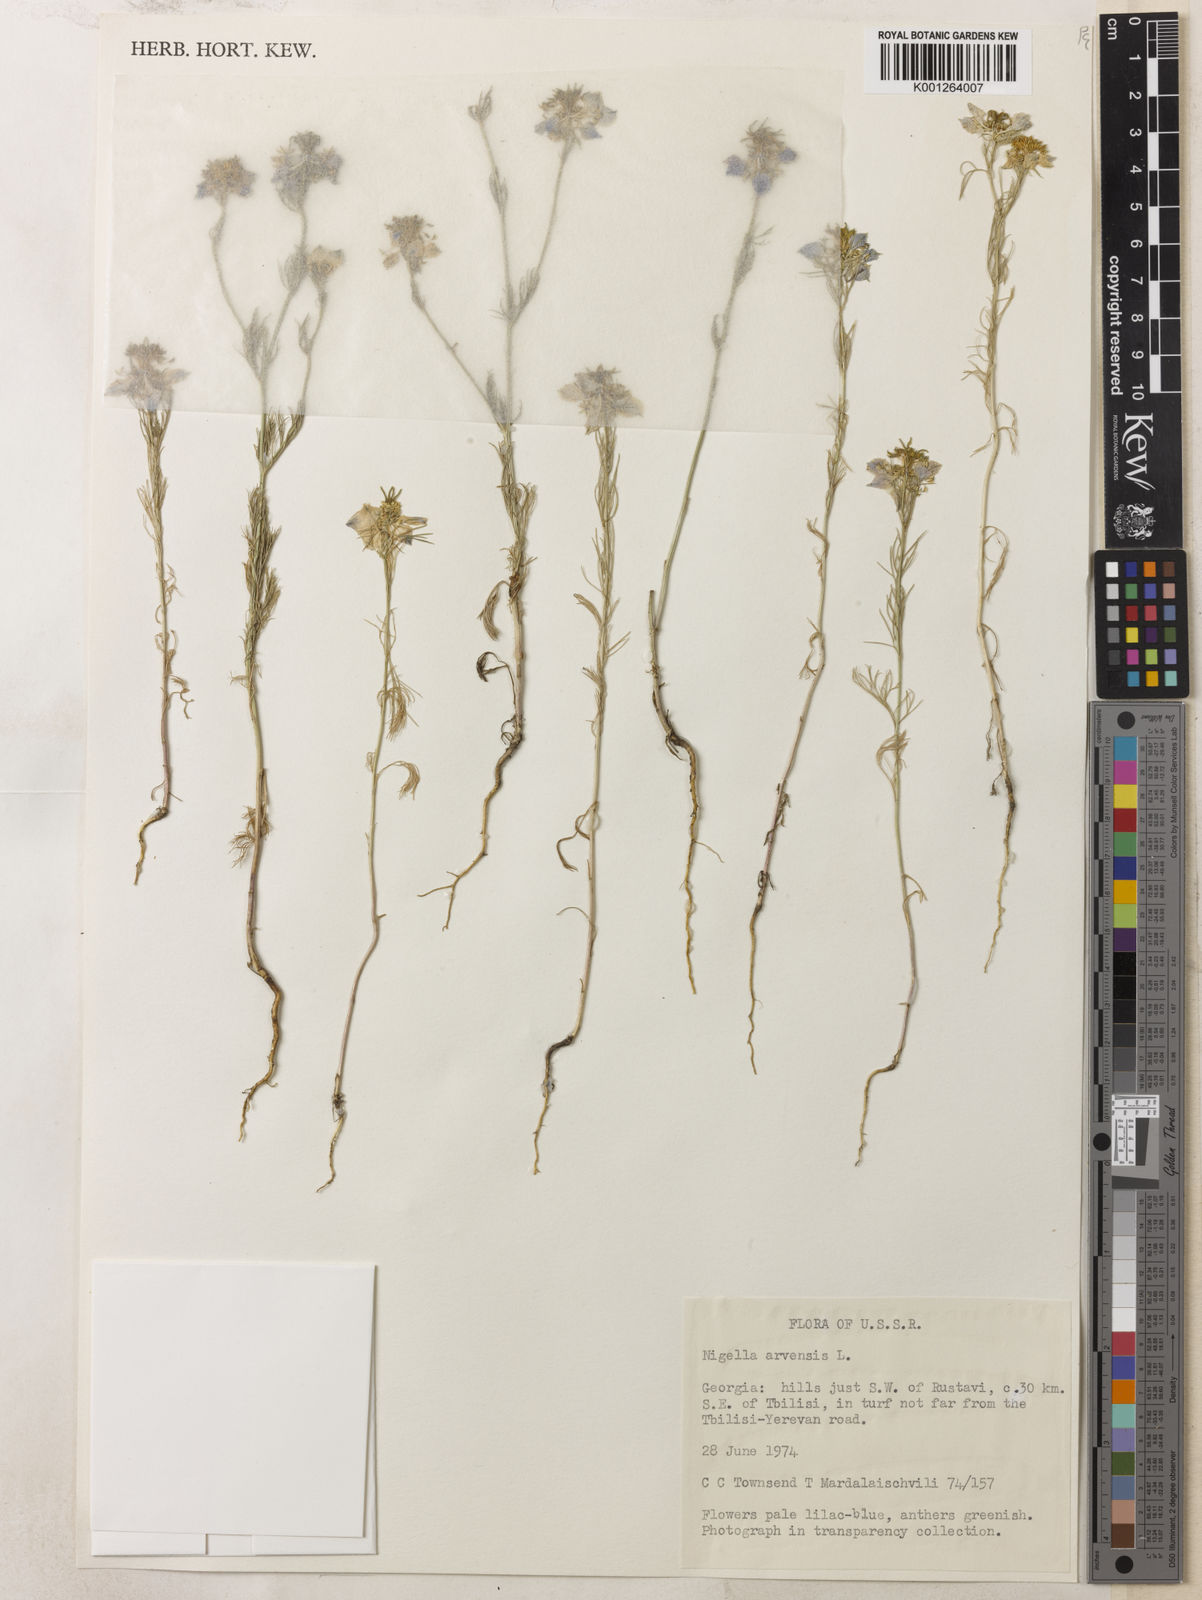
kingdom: Plantae
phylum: Tracheophyta
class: Magnoliopsida
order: Ranunculales
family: Ranunculaceae
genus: Nigella
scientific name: Nigella arvensis
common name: Wild fennel-flower
